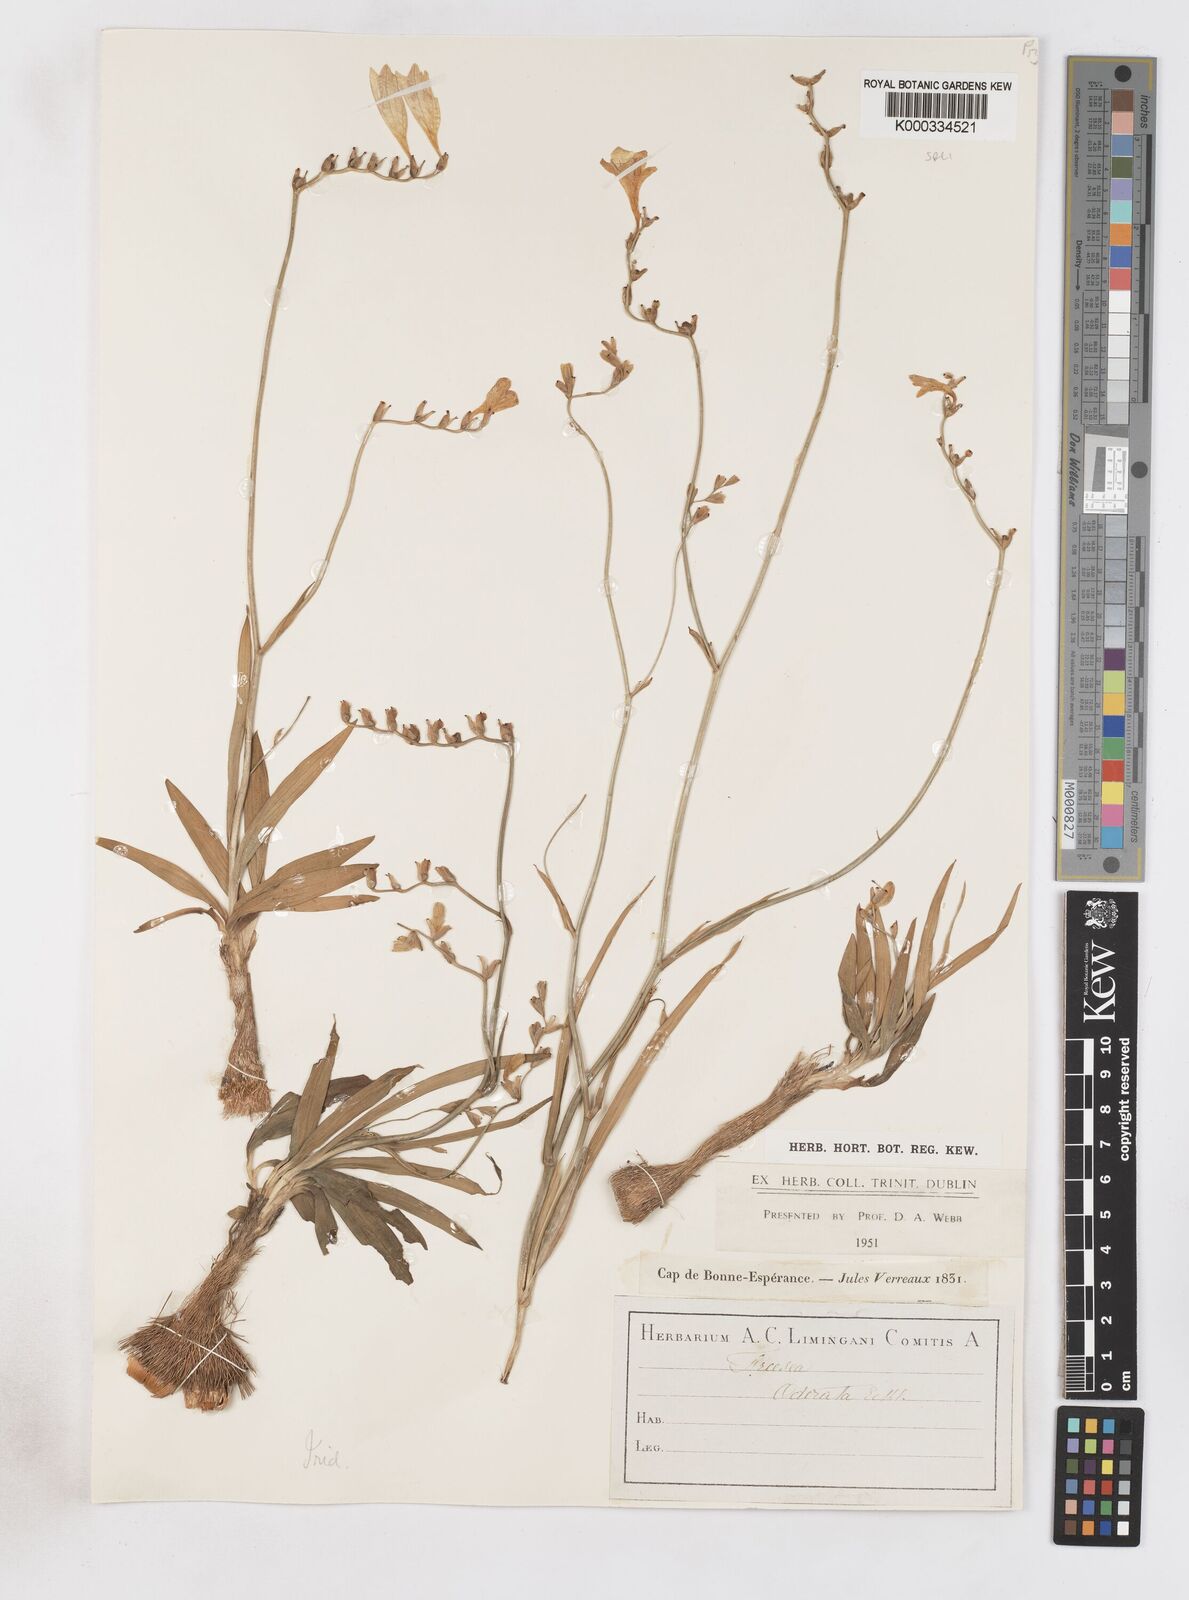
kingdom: Plantae
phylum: Tracheophyta
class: Liliopsida
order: Asparagales
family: Iridaceae
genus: Freesia
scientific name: Freesia corymbosa
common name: Common freesia
